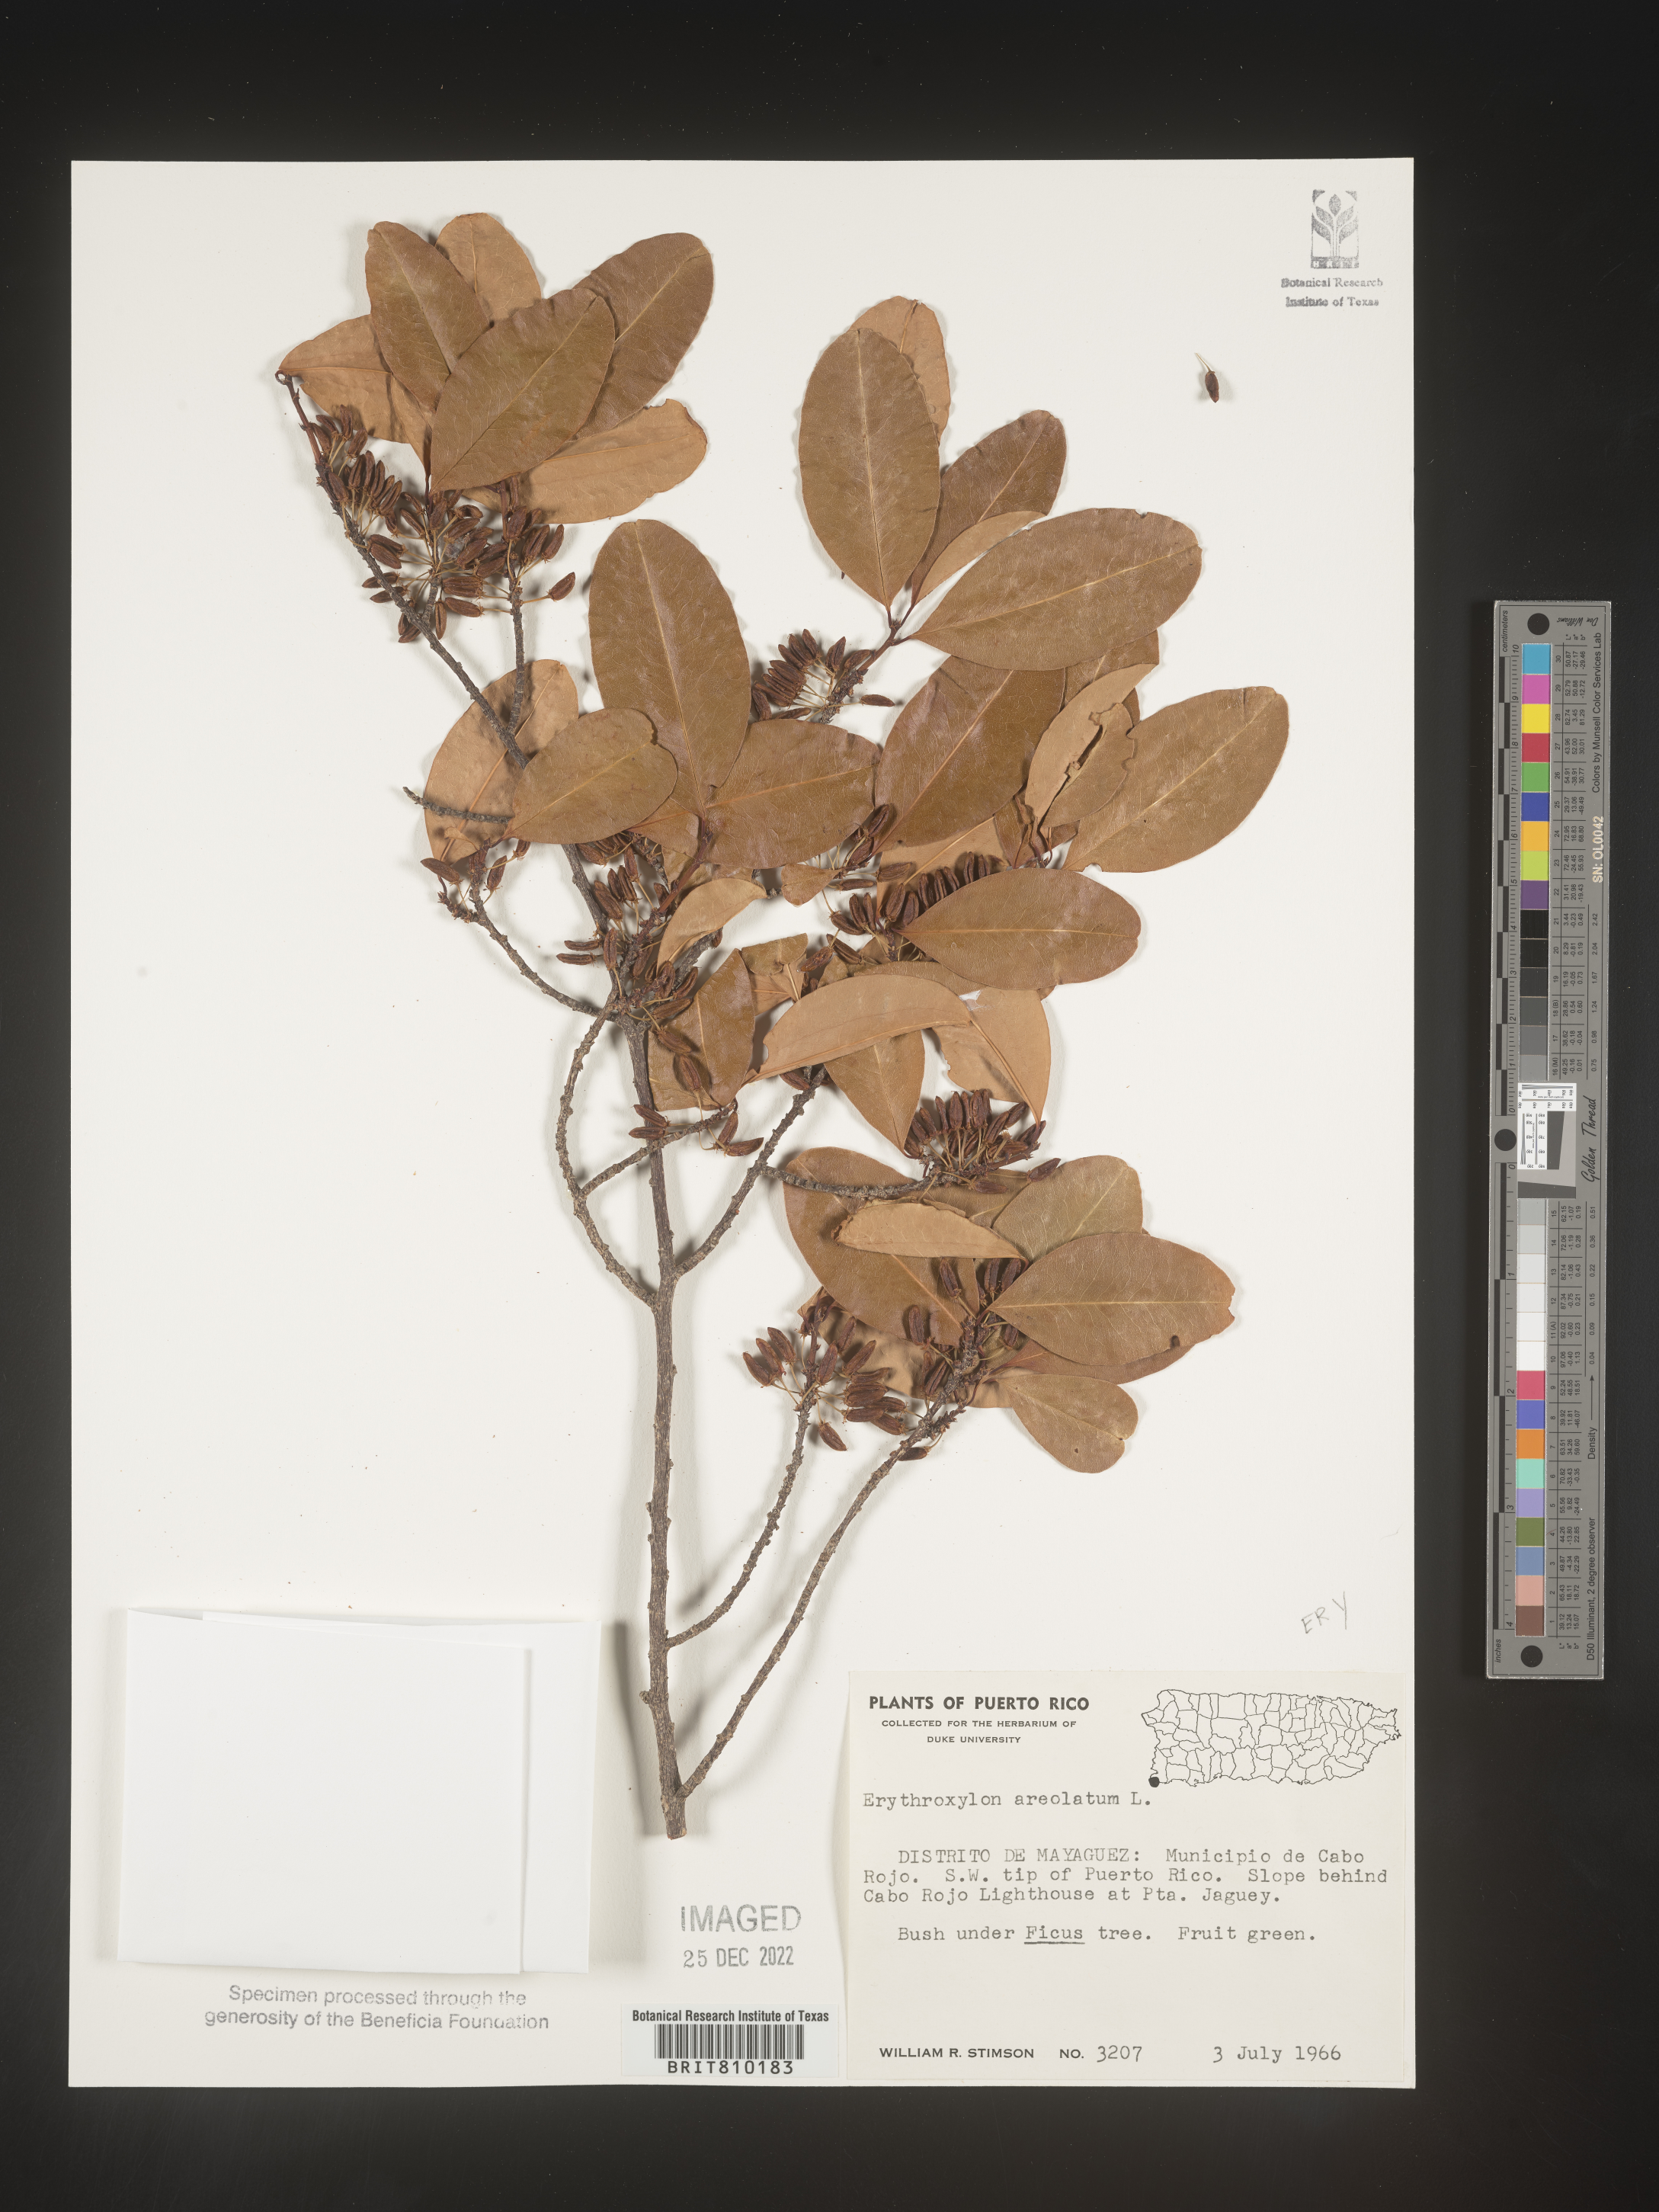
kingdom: Plantae
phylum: Tracheophyta
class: Magnoliopsida
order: Malpighiales
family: Erythroxylaceae
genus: Erythroxylum
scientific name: Erythroxylum
